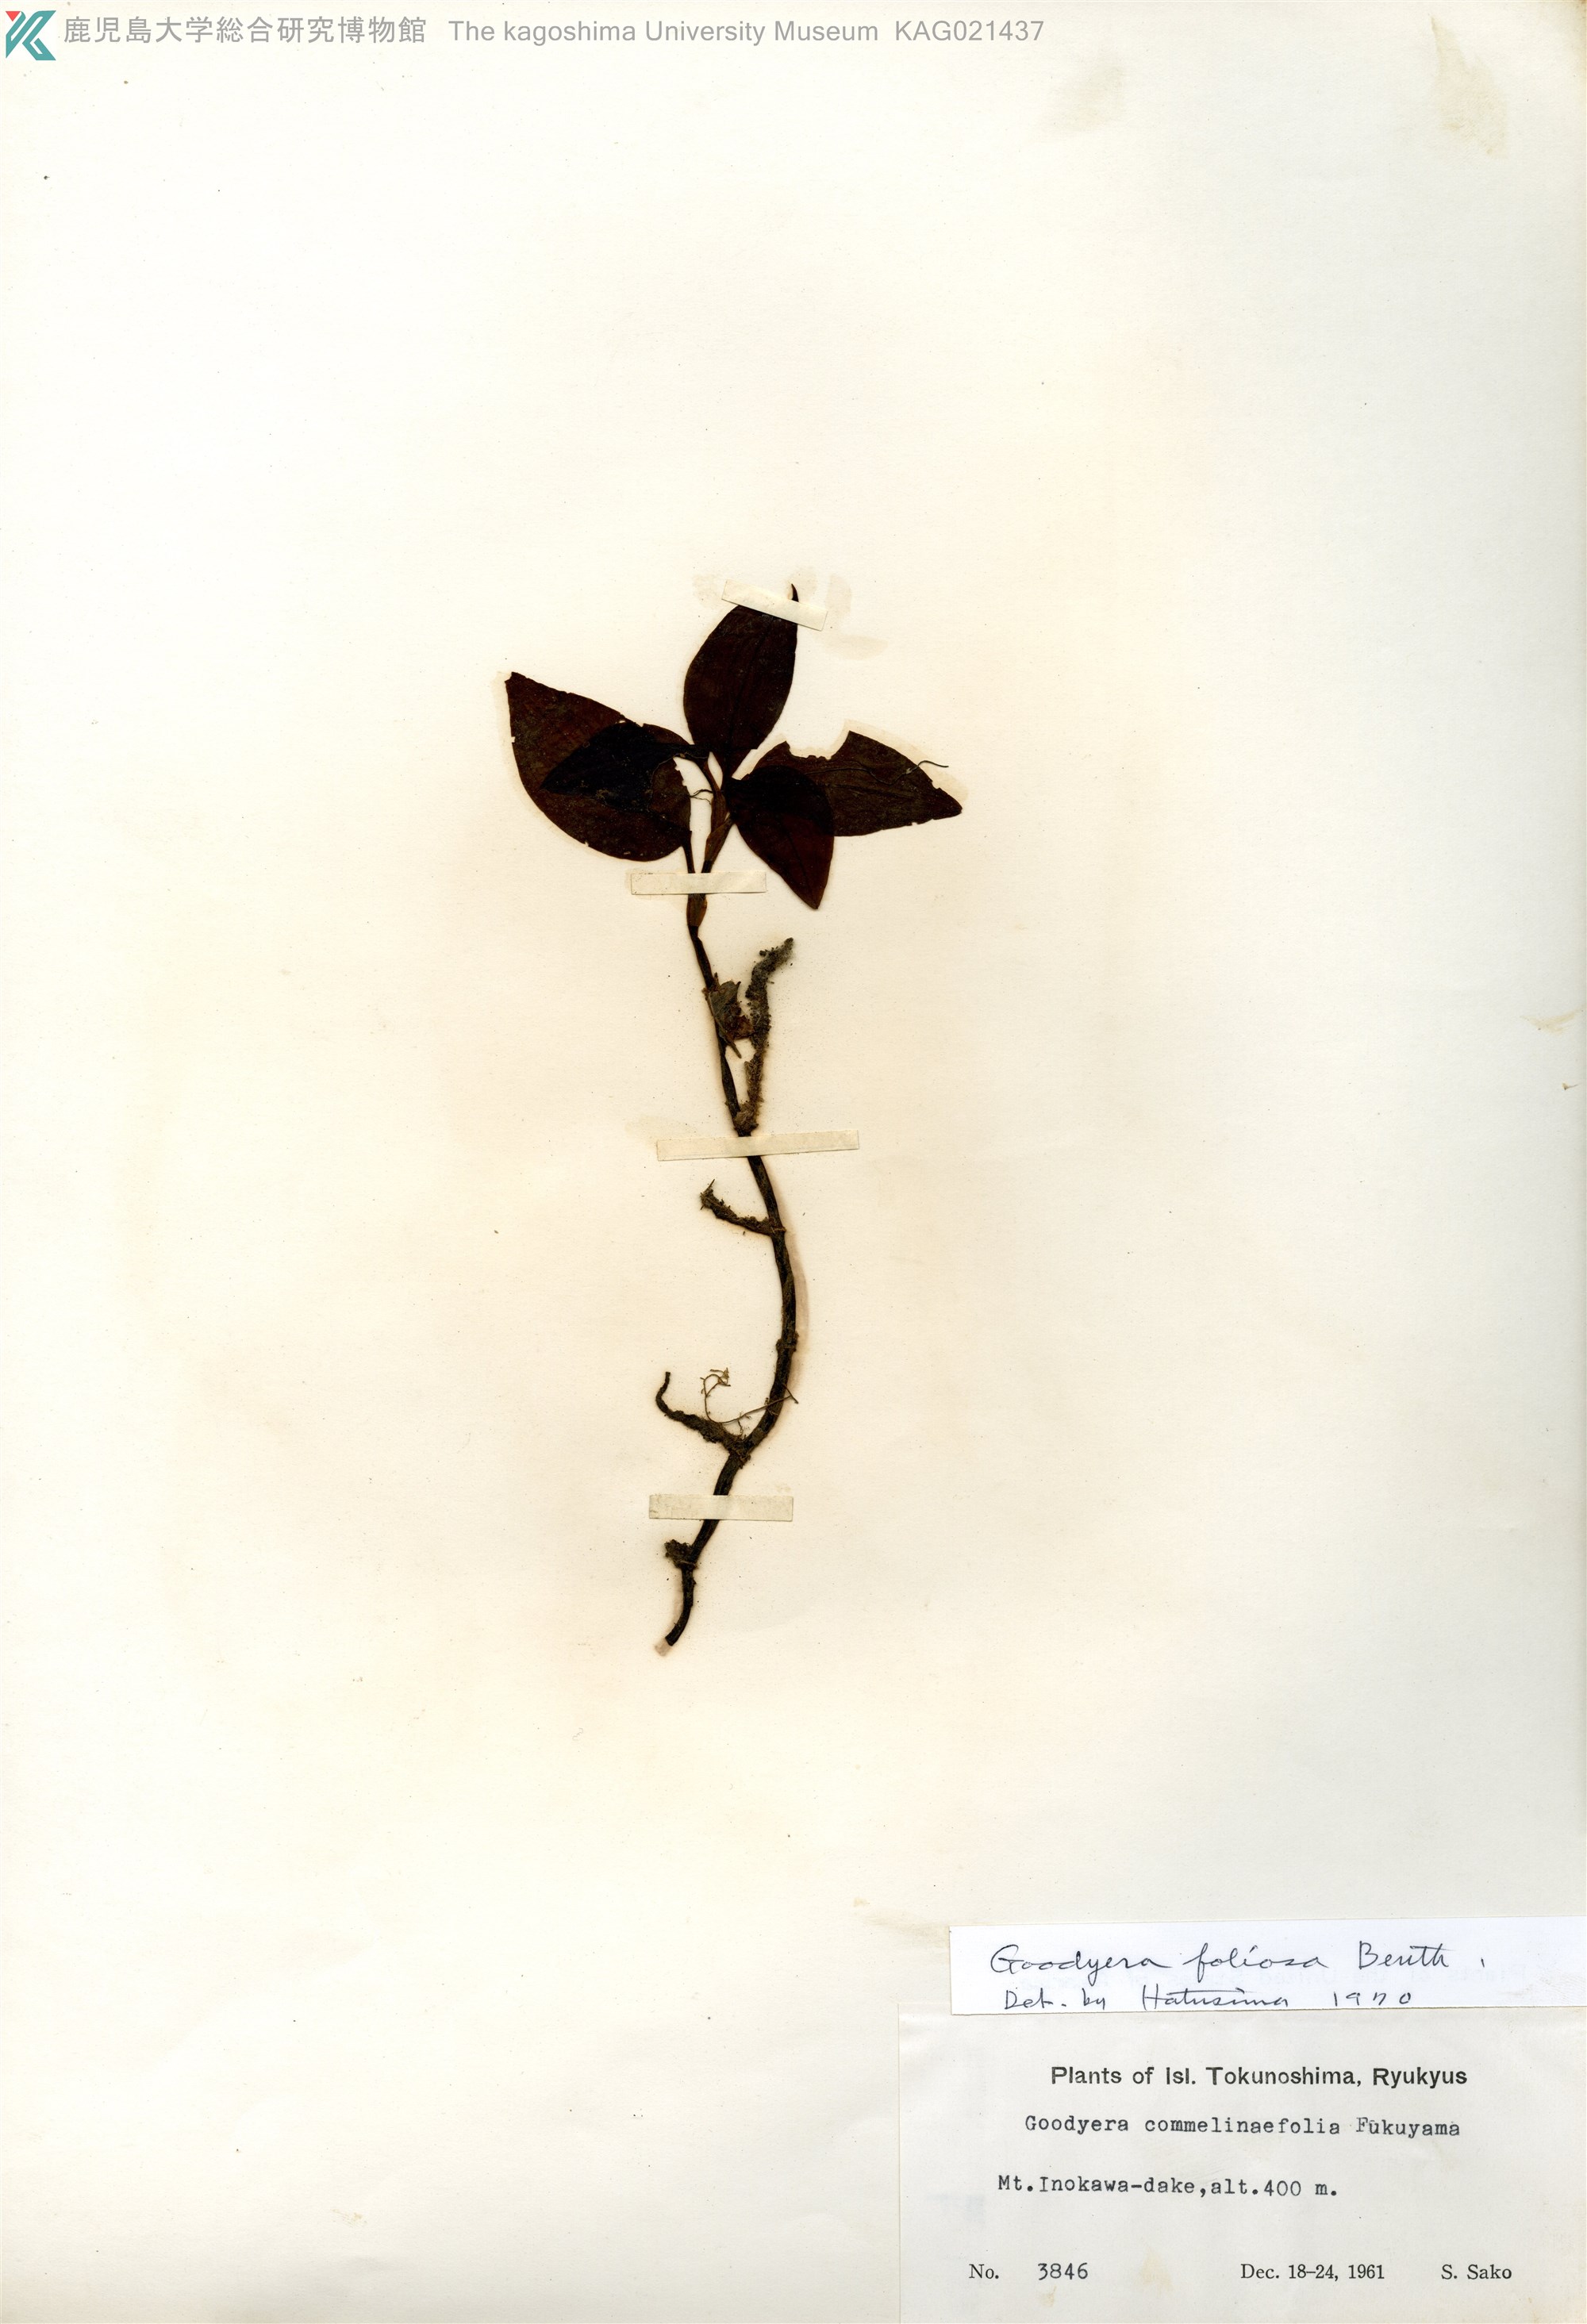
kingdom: Plantae
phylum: Tracheophyta
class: Liliopsida
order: Asparagales
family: Orchidaceae
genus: Goodyera
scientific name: Goodyera foliosa
